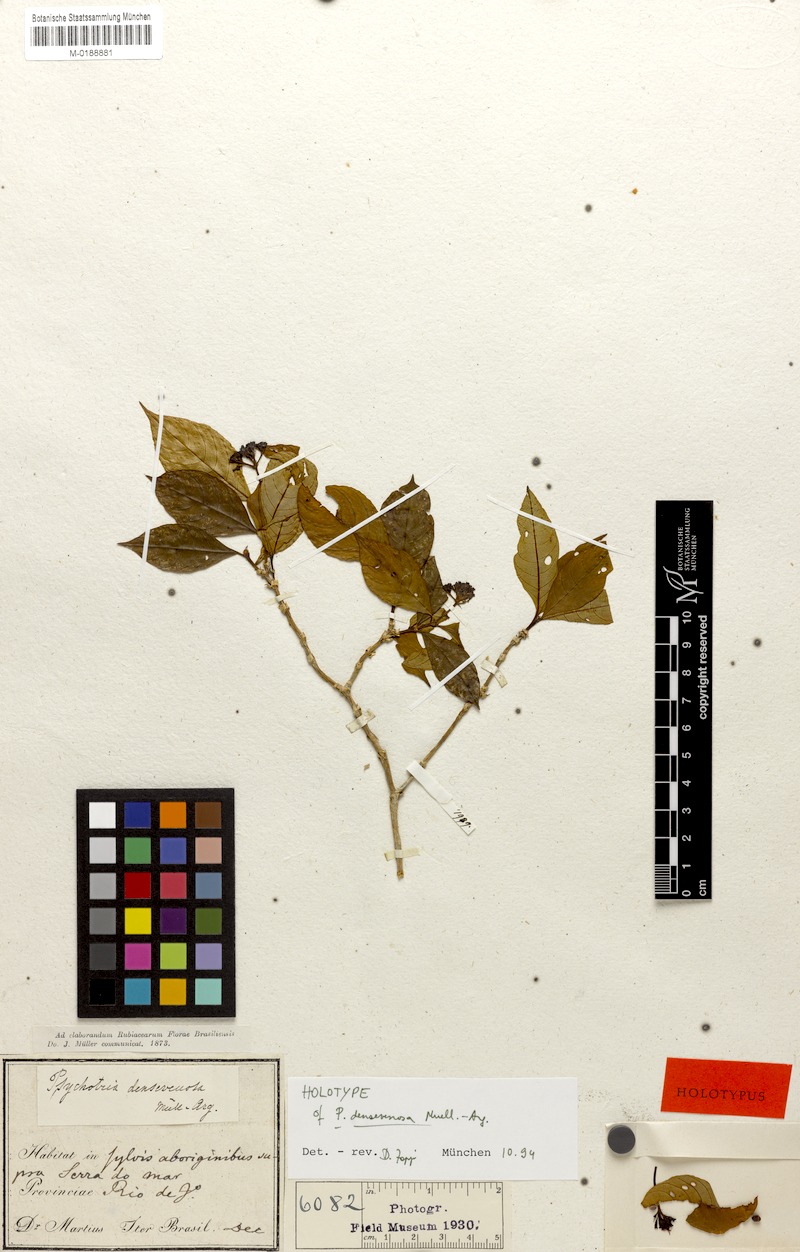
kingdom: Plantae
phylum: Tracheophyta
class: Magnoliopsida
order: Gentianales
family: Rubiaceae
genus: Psychotria
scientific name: Psychotria densivenosa
